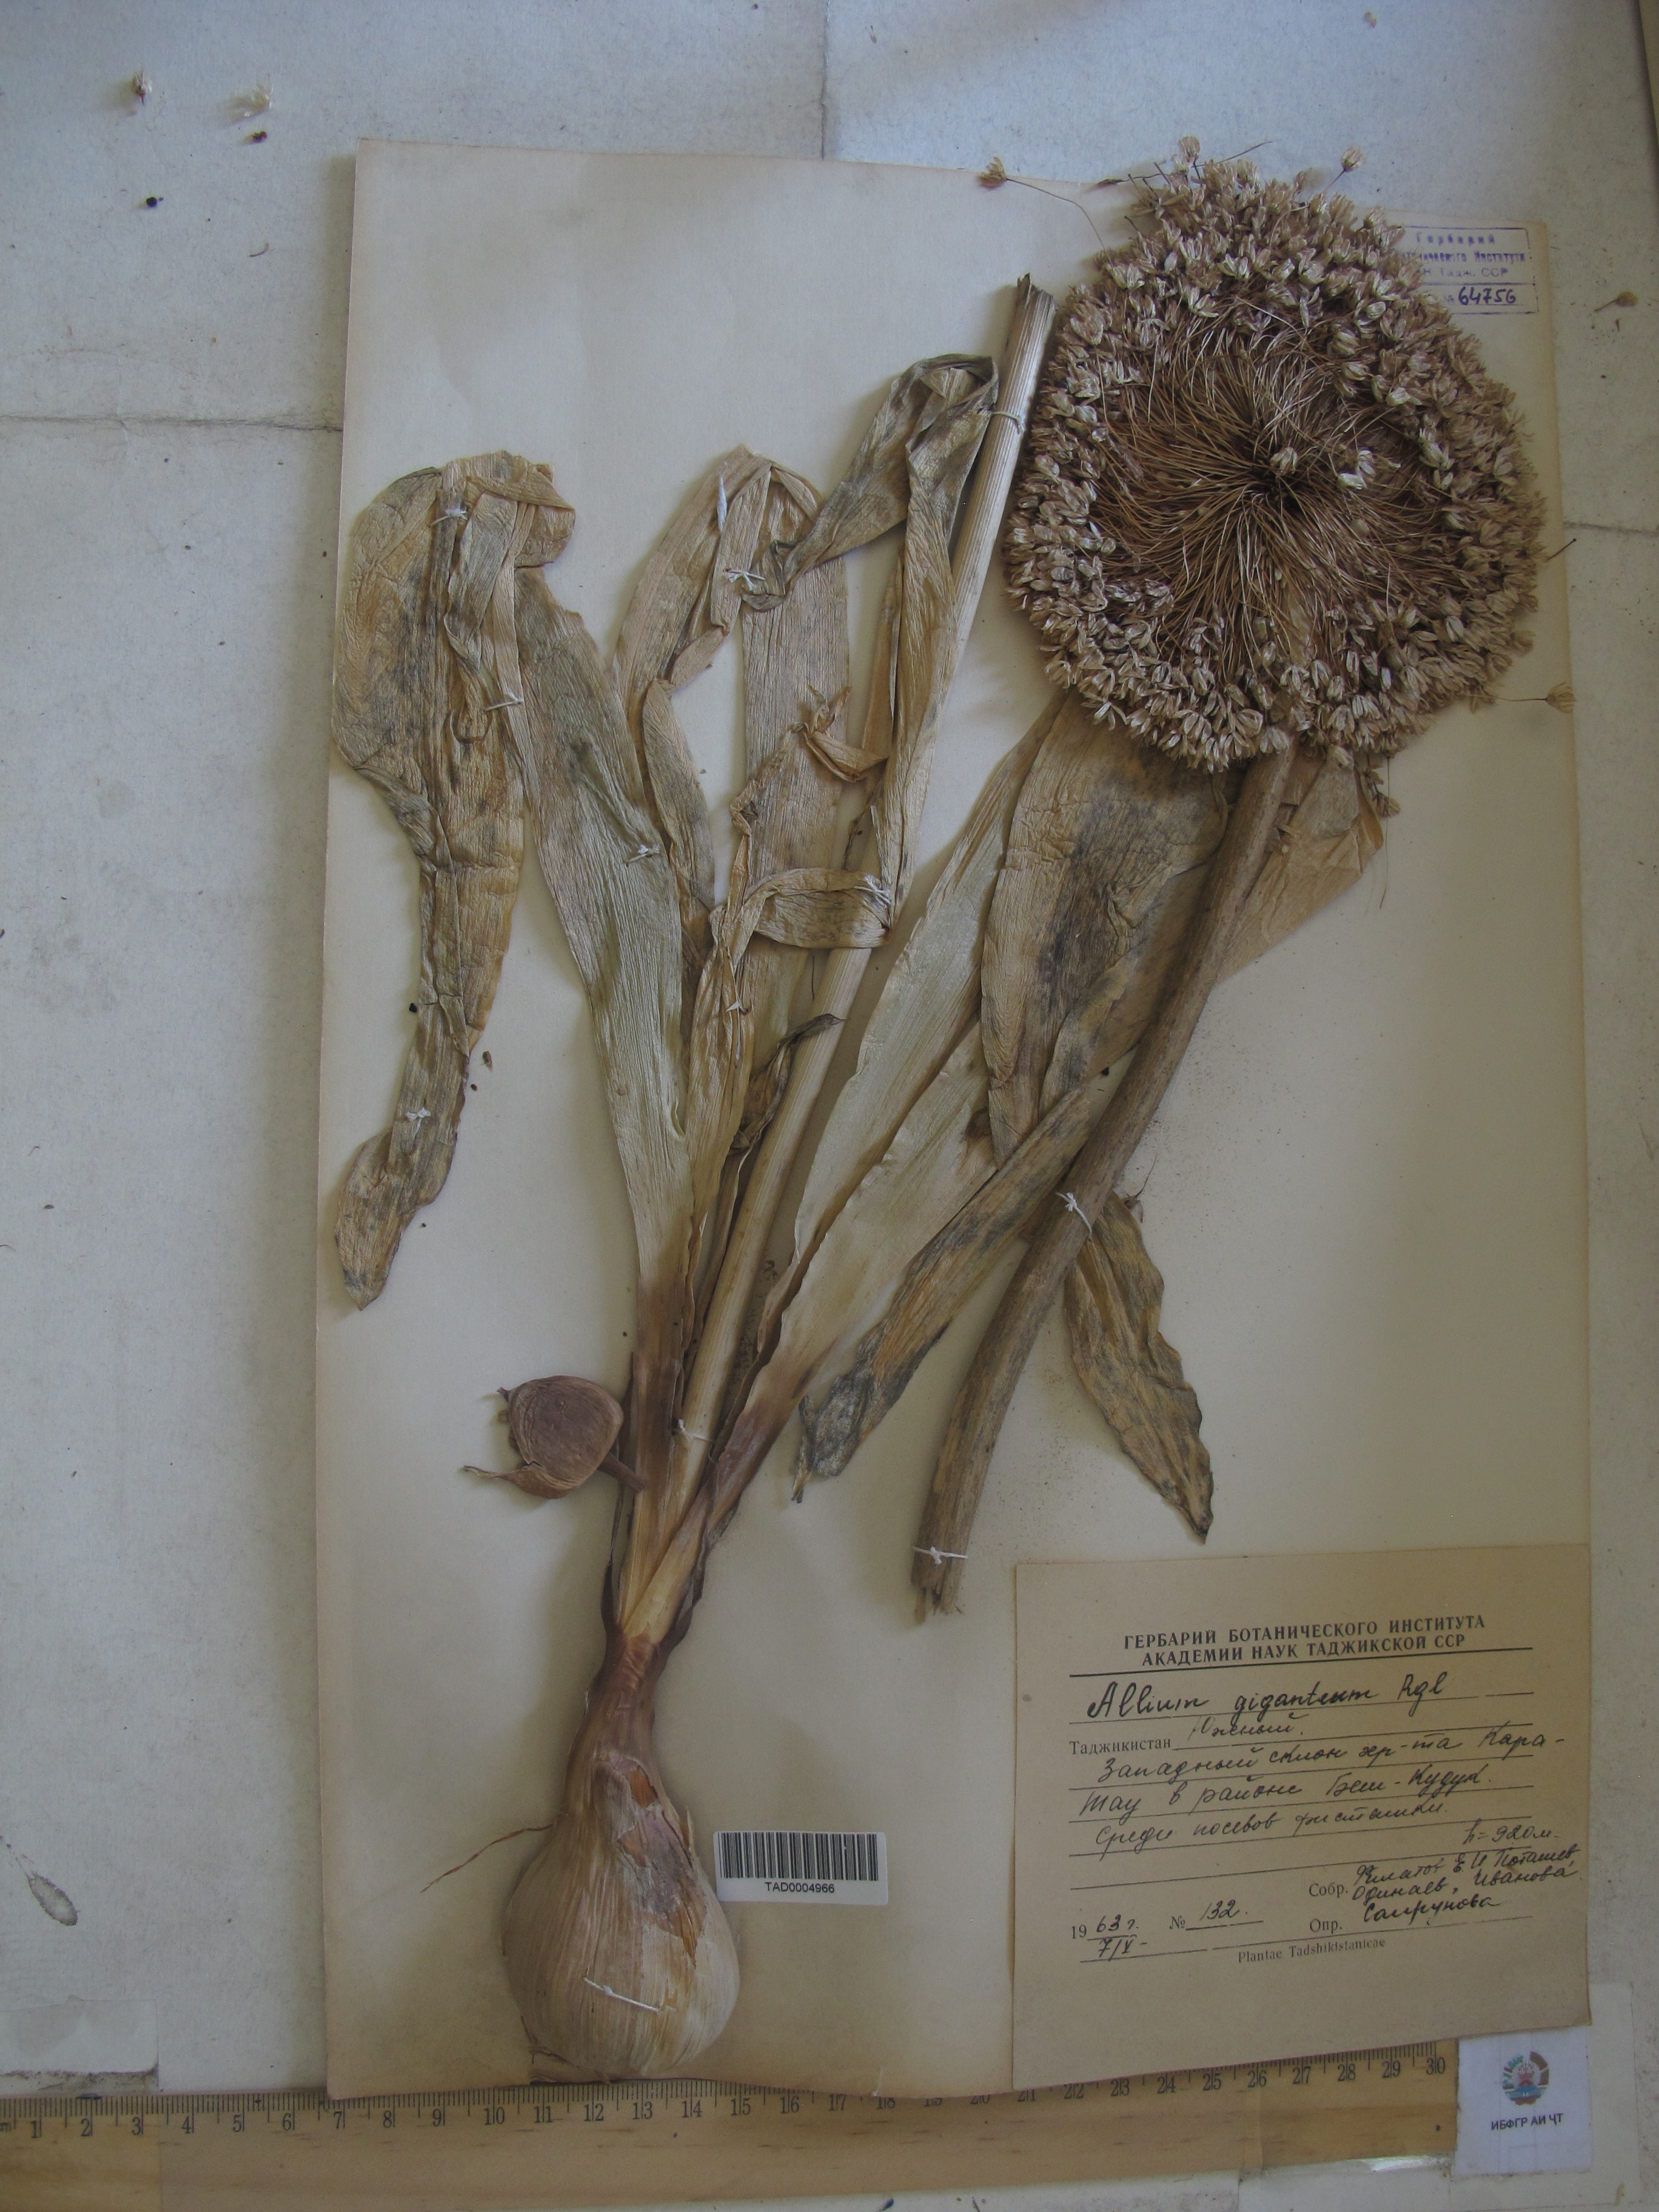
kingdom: Plantae
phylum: Tracheophyta
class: Liliopsida
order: Asparagales
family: Amaryllidaceae
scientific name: Amaryllidaceae
